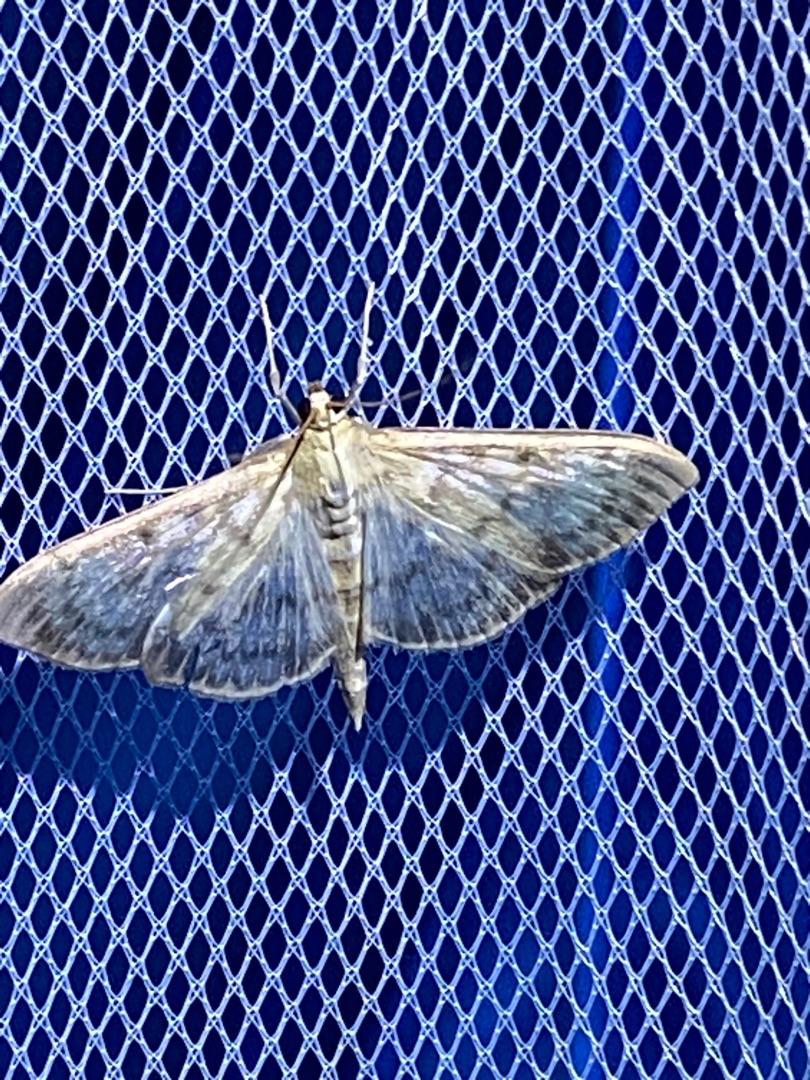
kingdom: Animalia
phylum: Arthropoda
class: Insecta
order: Lepidoptera
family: Crambidae
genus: Patania
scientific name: Patania ruralis
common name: Perlemorshalvmøl
